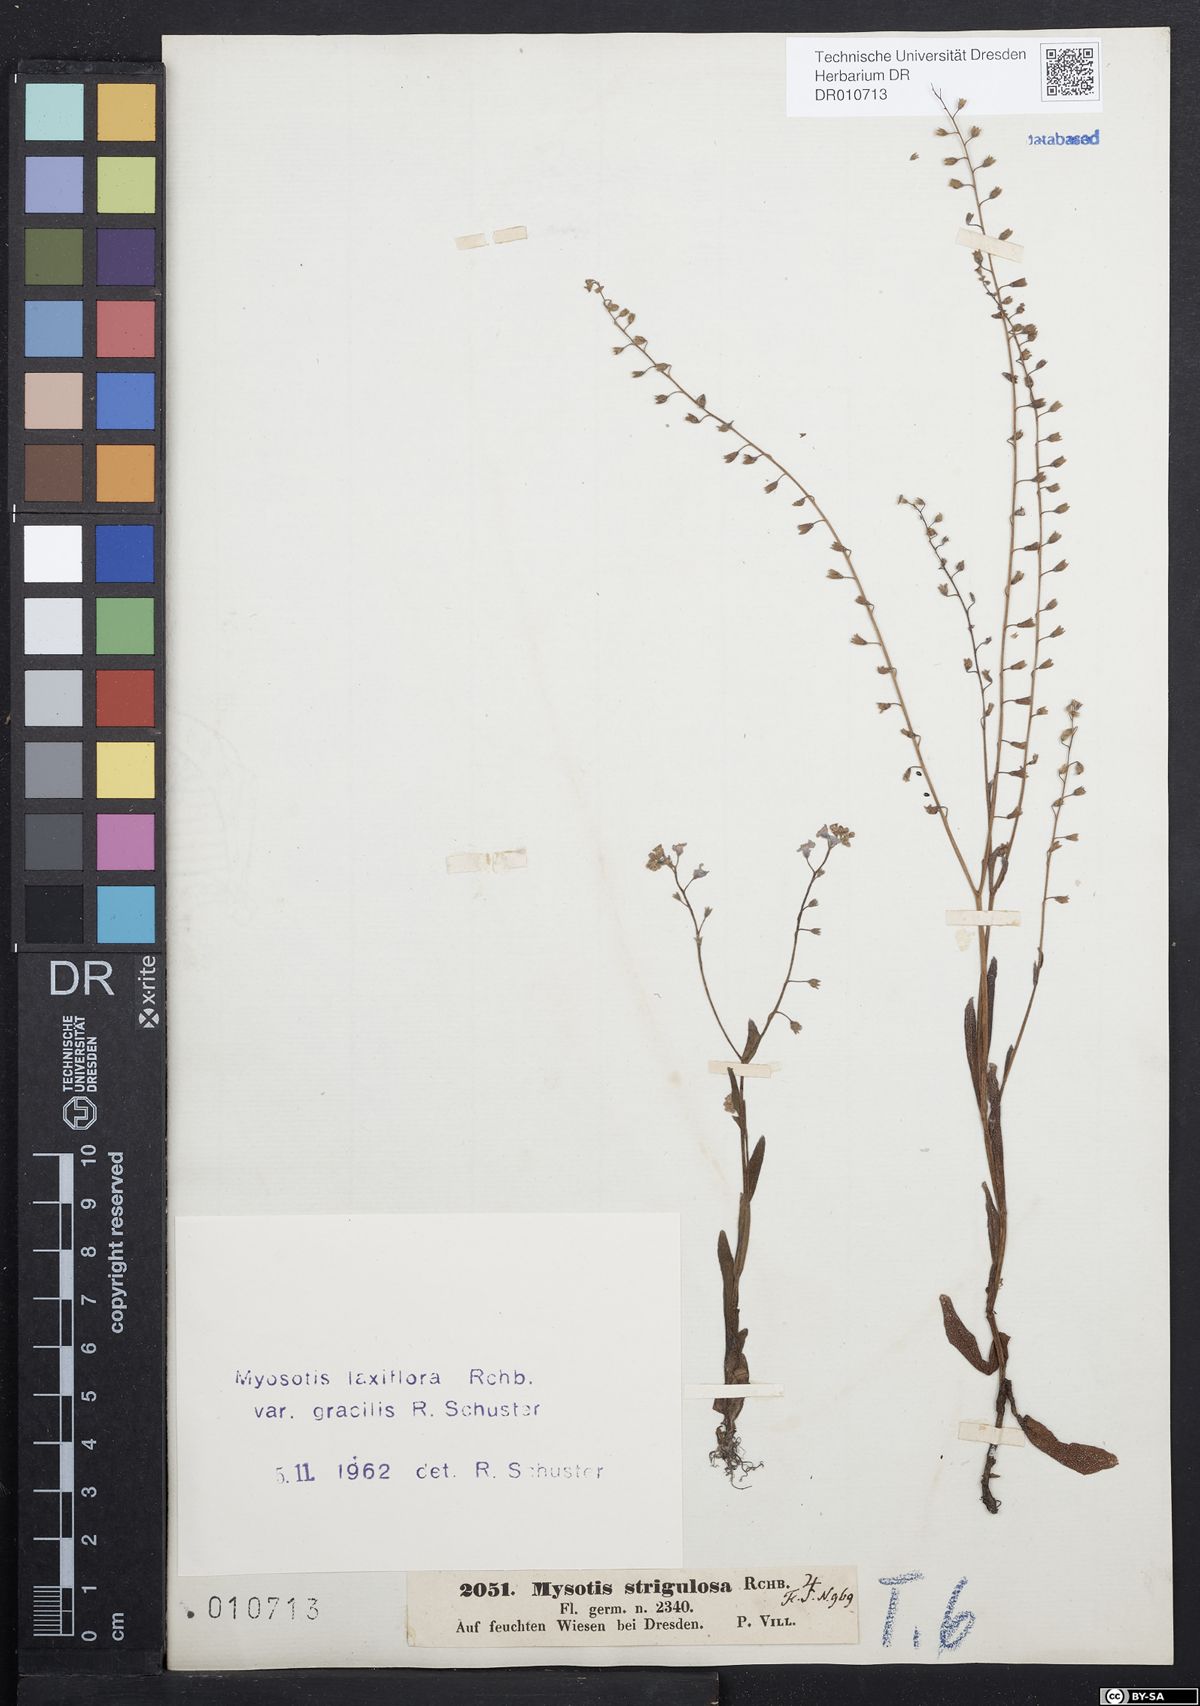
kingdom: Plantae
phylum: Tracheophyta
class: Magnoliopsida
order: Boraginales
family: Boraginaceae
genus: Myosotis
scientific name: Myosotis scorpioides
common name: Water forget-me-not
